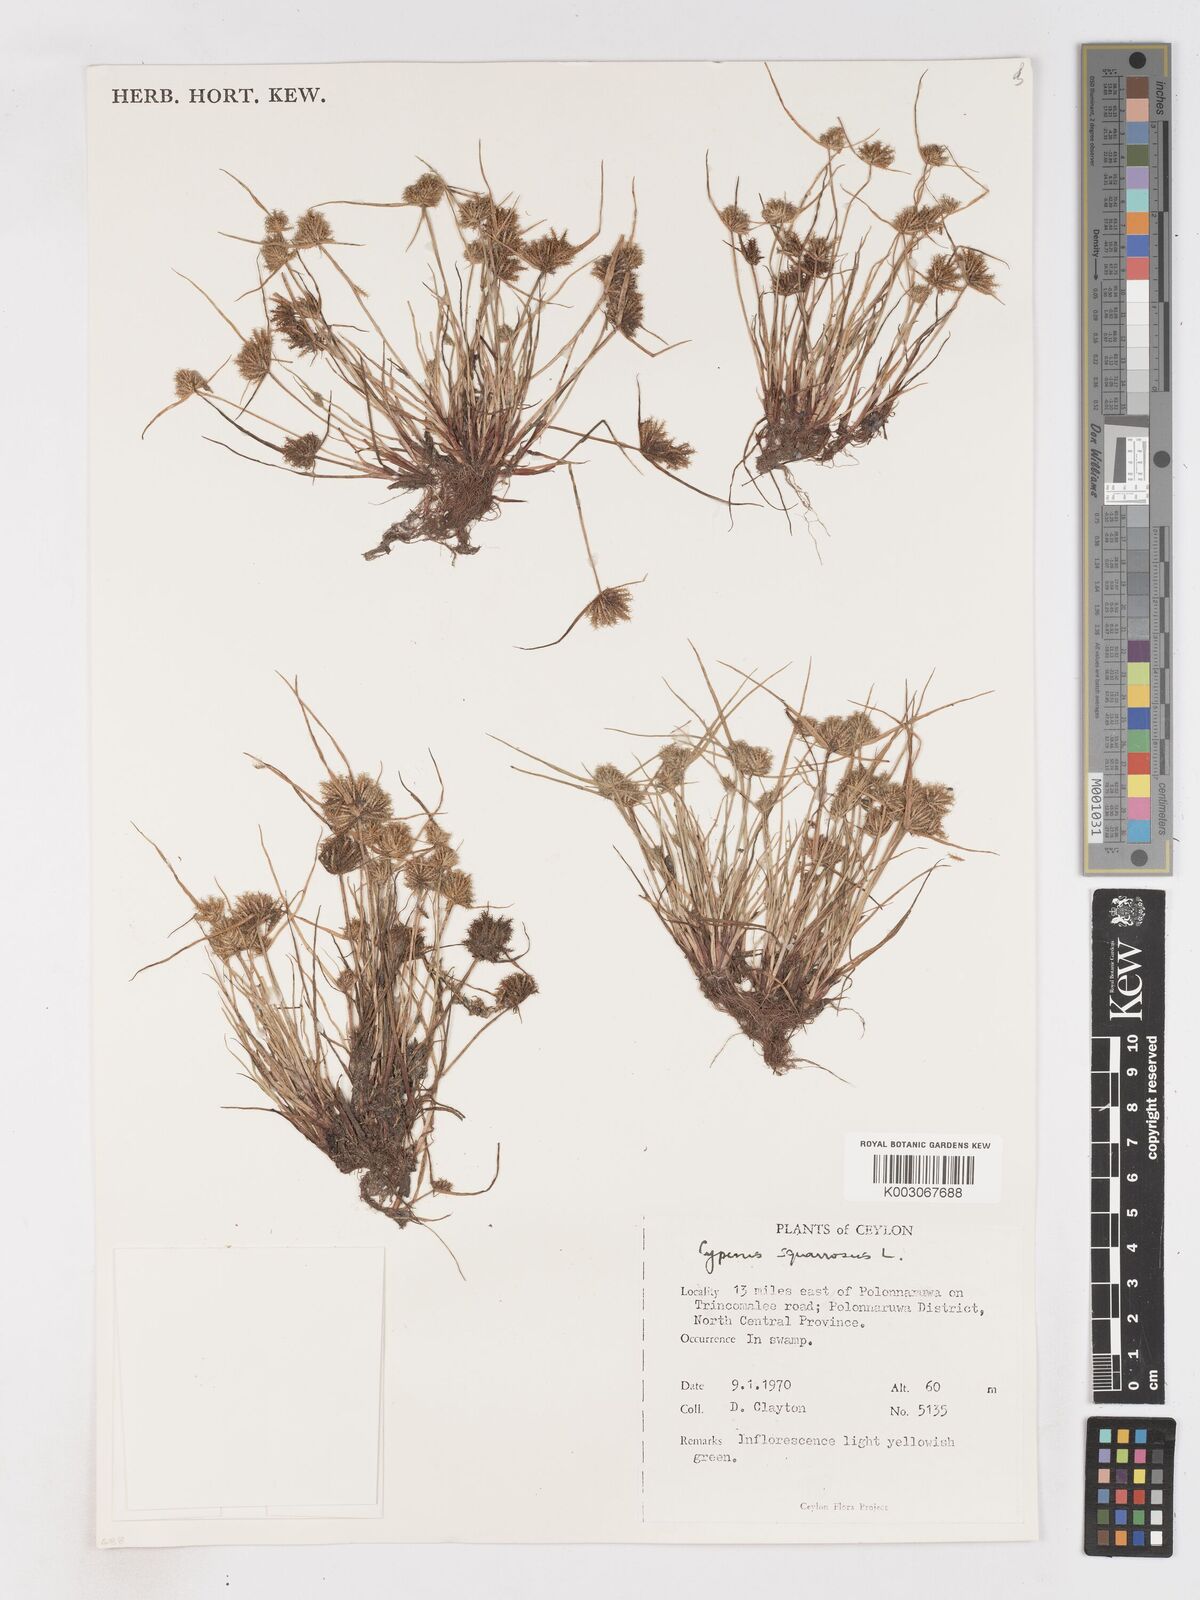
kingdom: Plantae
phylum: Tracheophyta
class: Liliopsida
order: Poales
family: Cyperaceae
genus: Cyperus
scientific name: Cyperus squarrosus
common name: Awned cyperus
